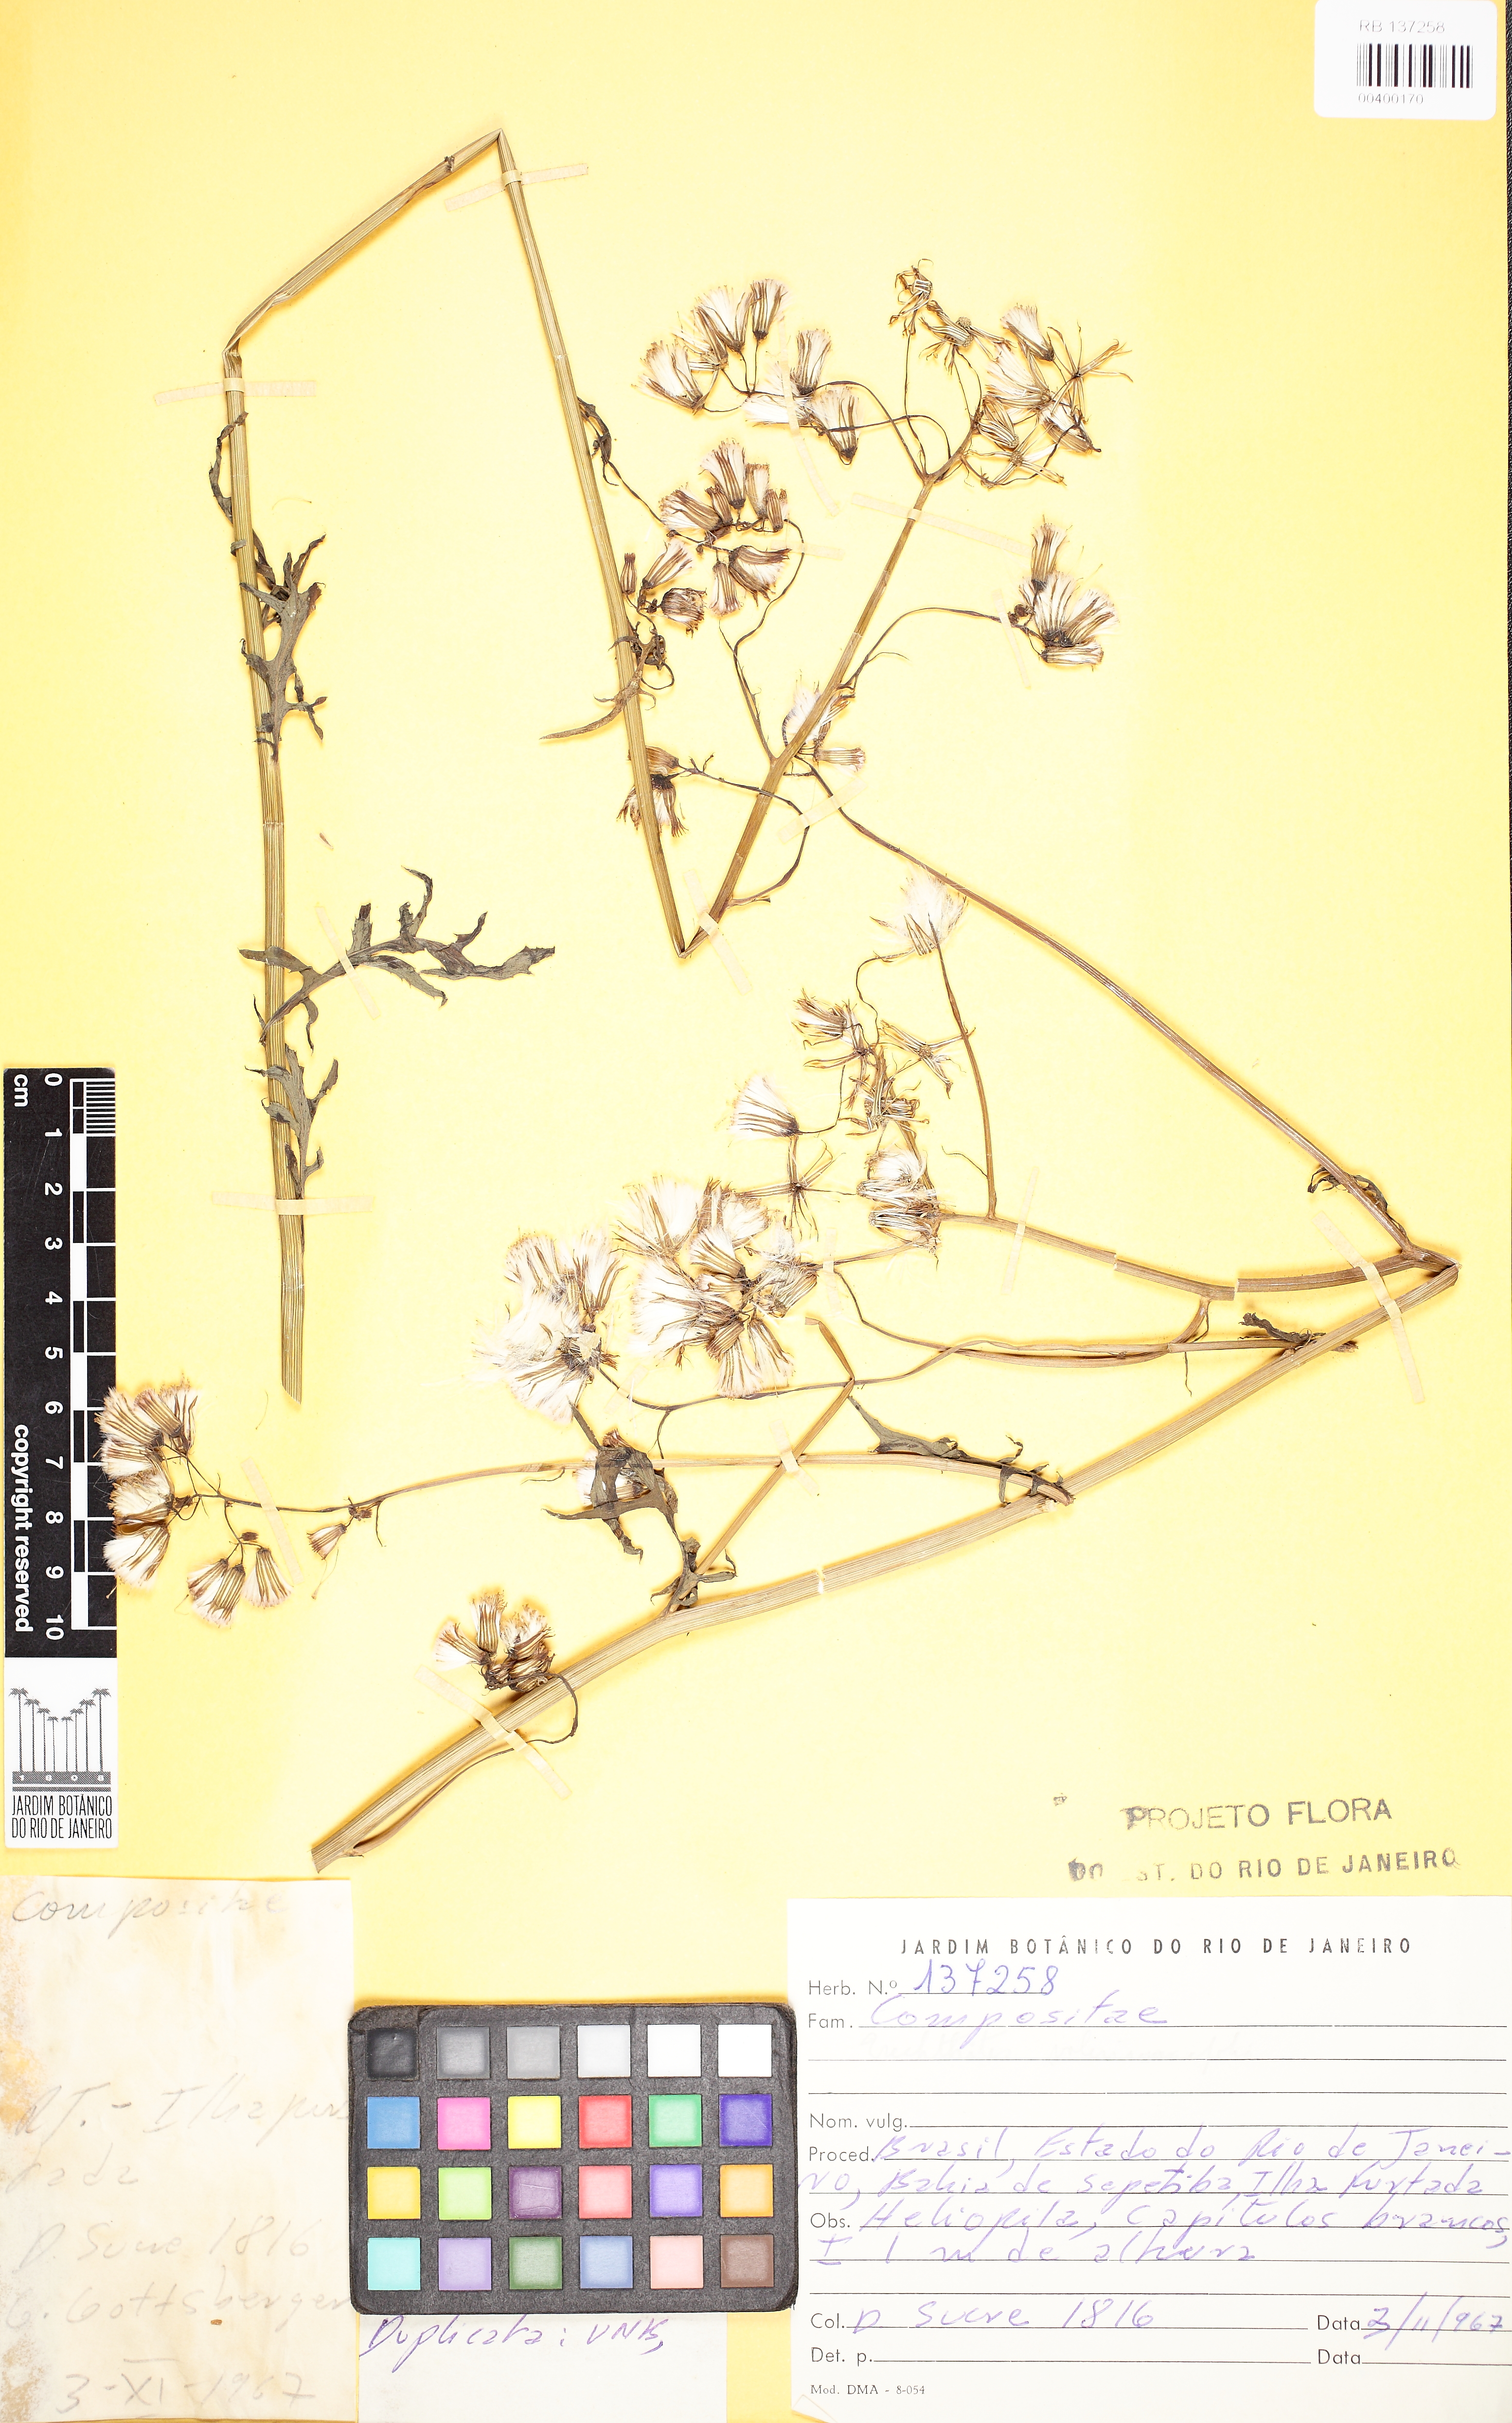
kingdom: Plantae
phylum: Tracheophyta
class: Magnoliopsida
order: Asterales
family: Asteraceae
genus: Erechtites
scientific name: Erechtites valerianifolius
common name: Tropical burnweed
